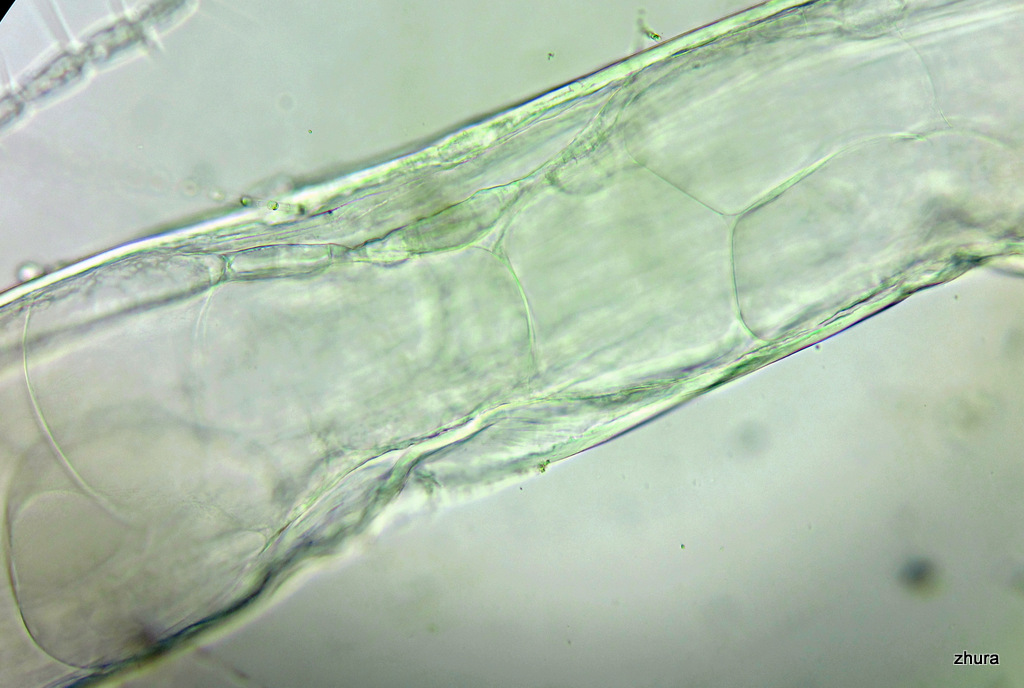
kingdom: Animalia
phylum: Chaetognatha
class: Sagittoidea
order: Aphragmophora
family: Sagittidae
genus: Parasagitta
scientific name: Parasagitta elegans
